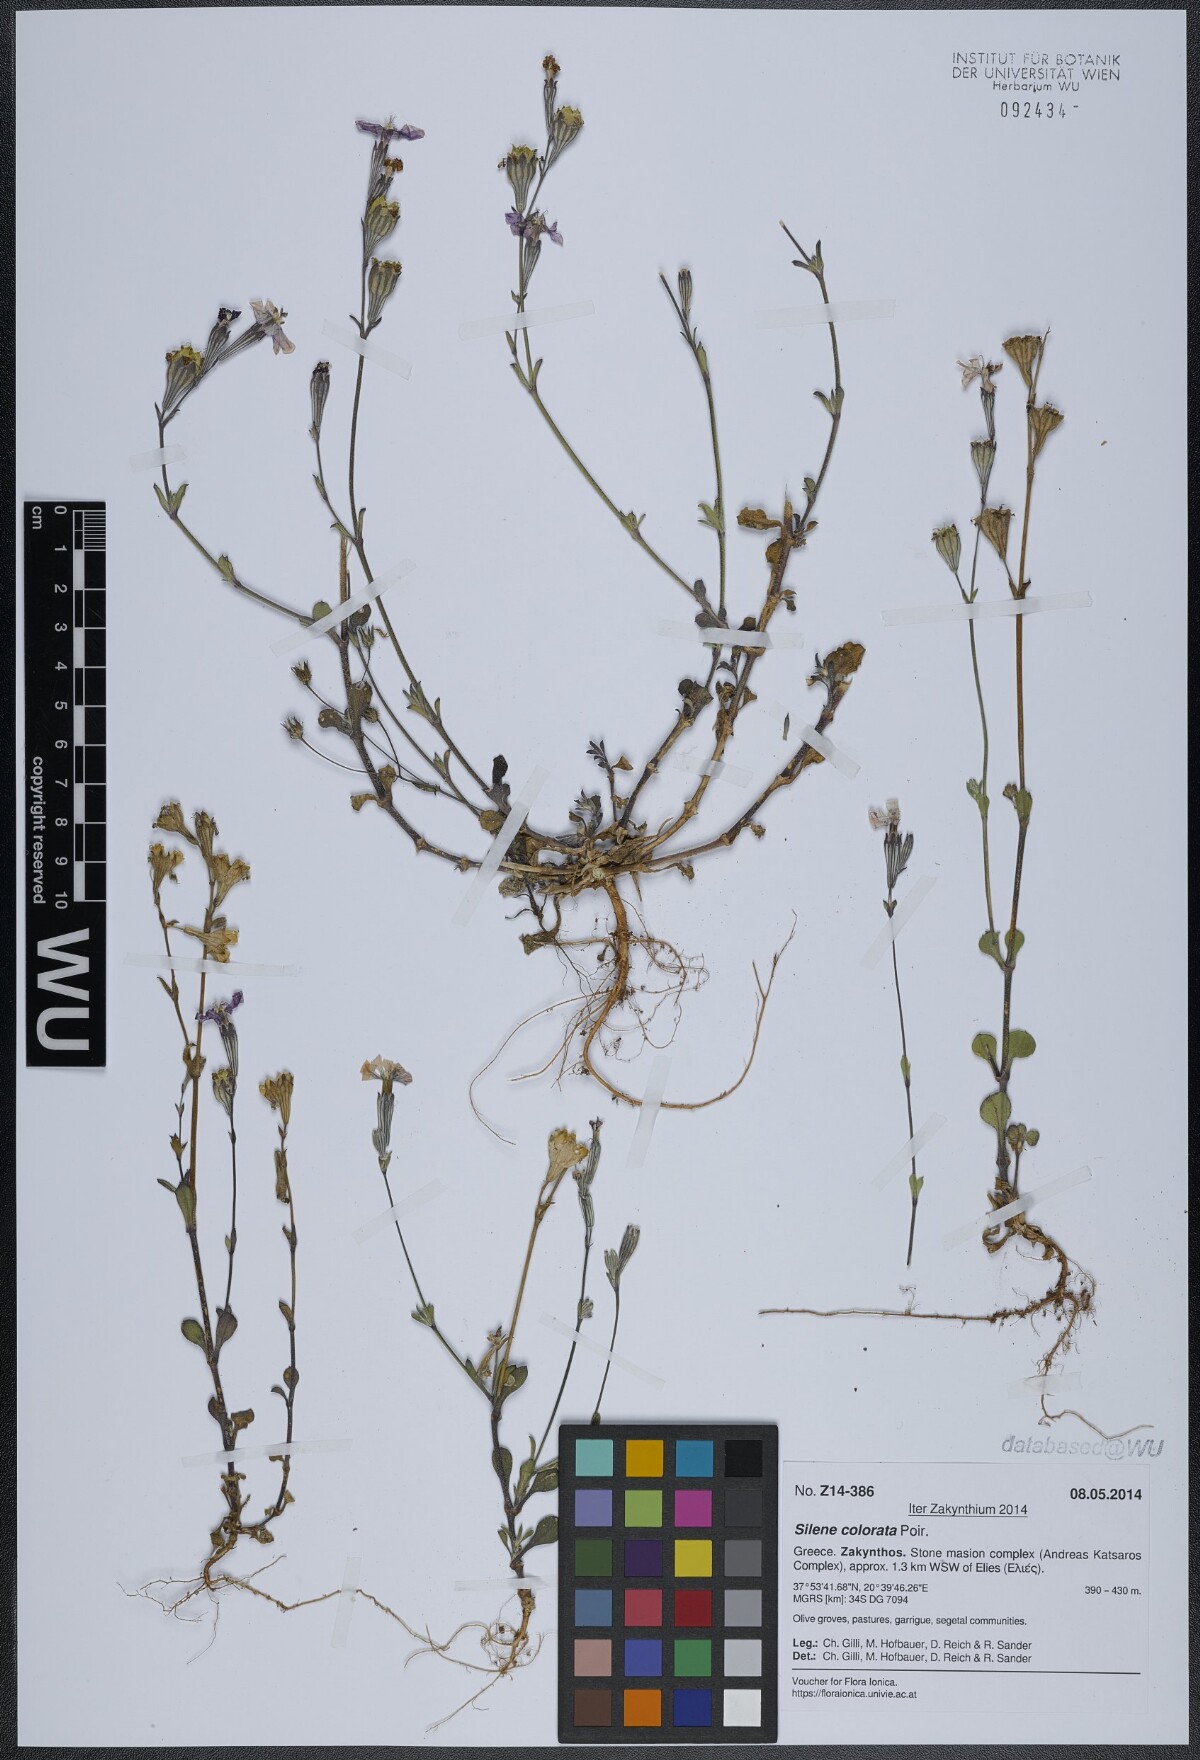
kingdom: Plantae
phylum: Tracheophyta
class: Magnoliopsida
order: Caryophyllales
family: Caryophyllaceae
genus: Silene
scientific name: Silene colorata
